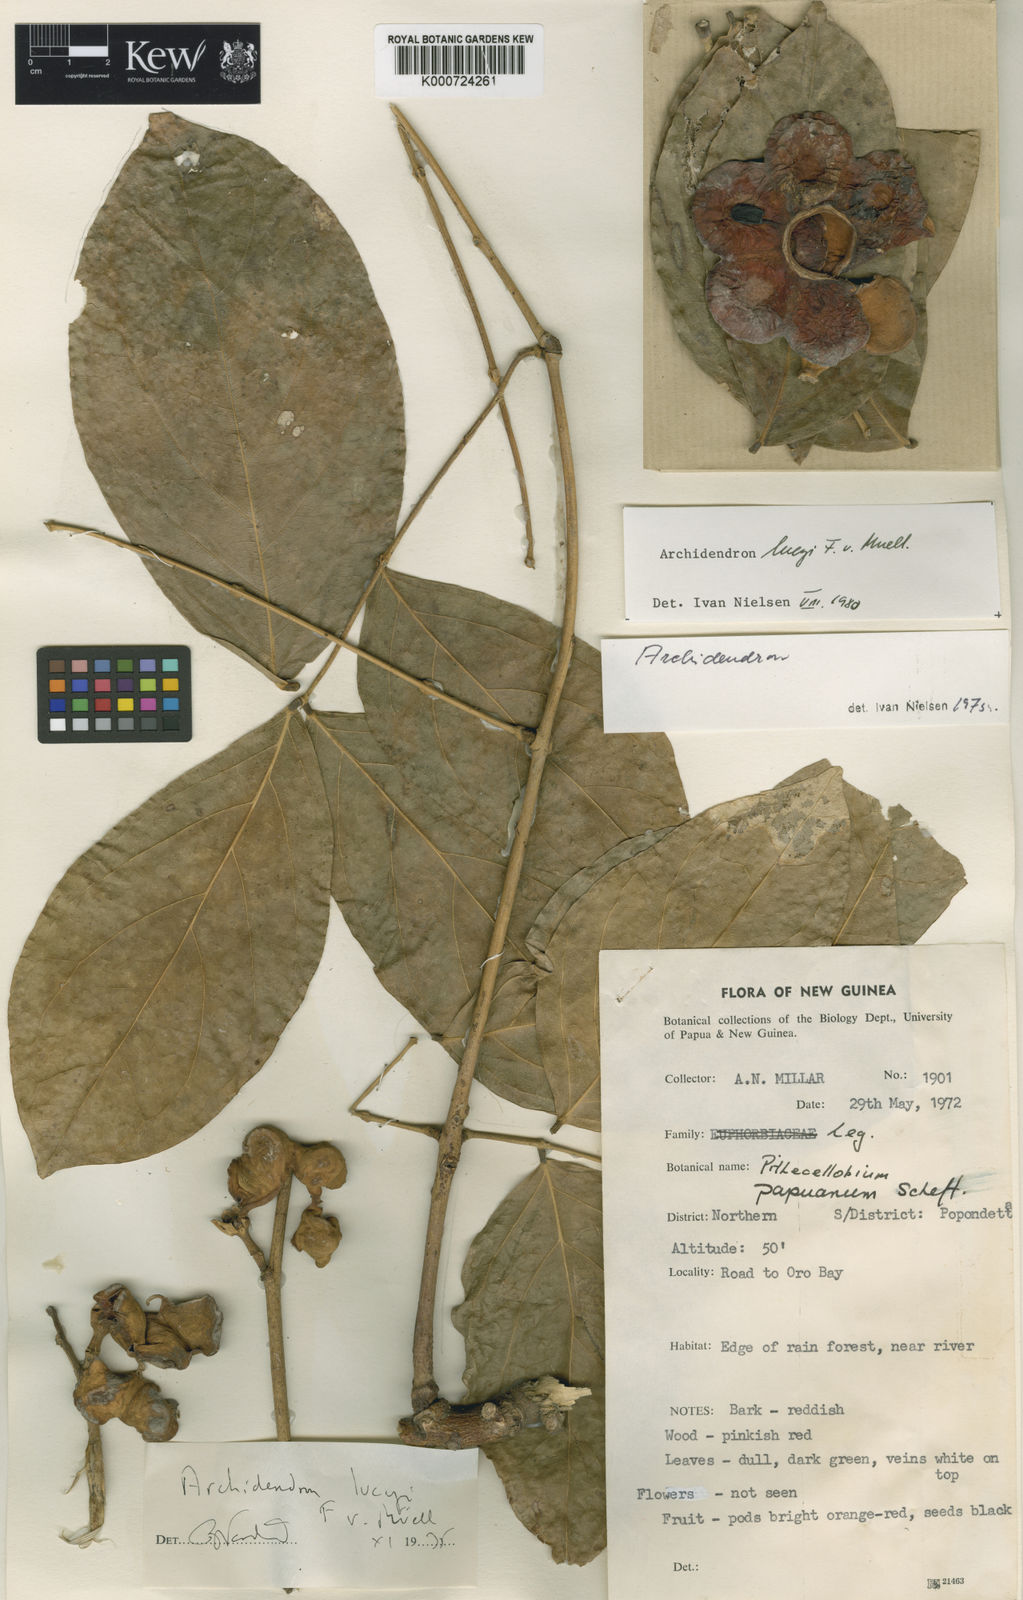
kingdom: Plantae
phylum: Tracheophyta
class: Magnoliopsida
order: Fabales
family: Fabaceae
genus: Archidendron
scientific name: Archidendron lucyi
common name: Scarlet bean
